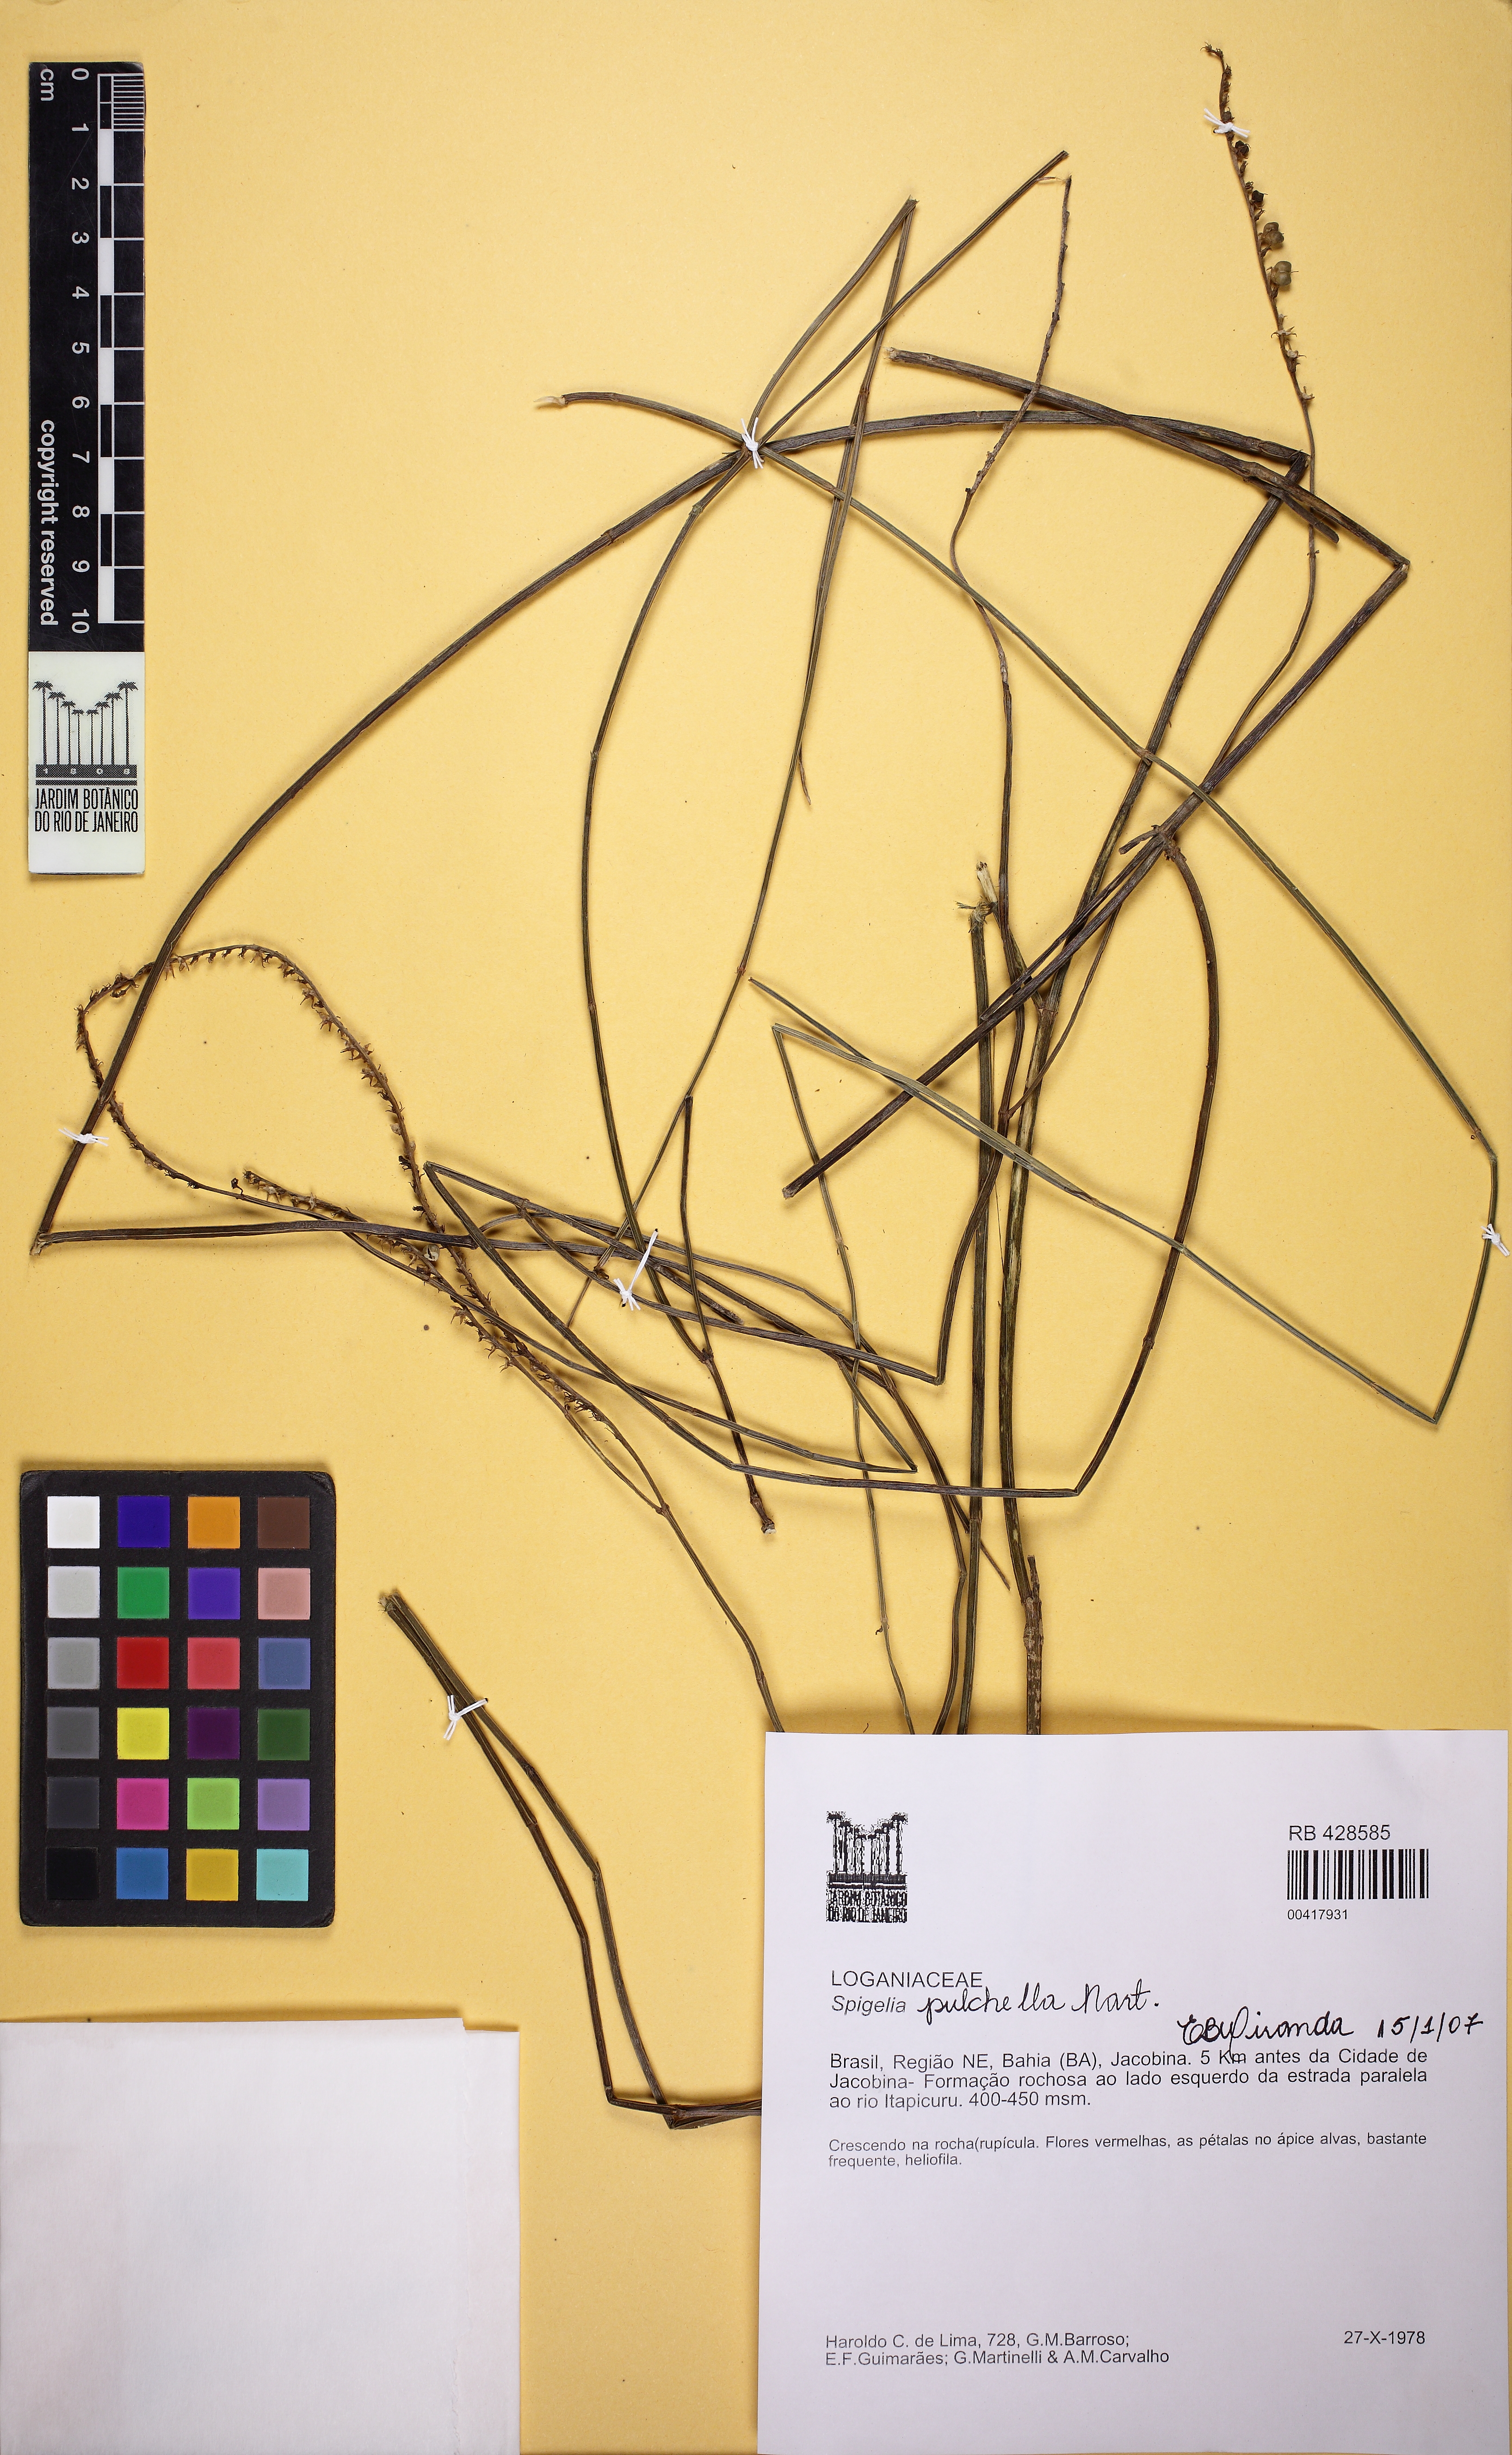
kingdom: Plantae
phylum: Tracheophyta
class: Magnoliopsida
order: Gentianales
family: Loganiaceae
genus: Spigelia
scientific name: Spigelia pulchella
